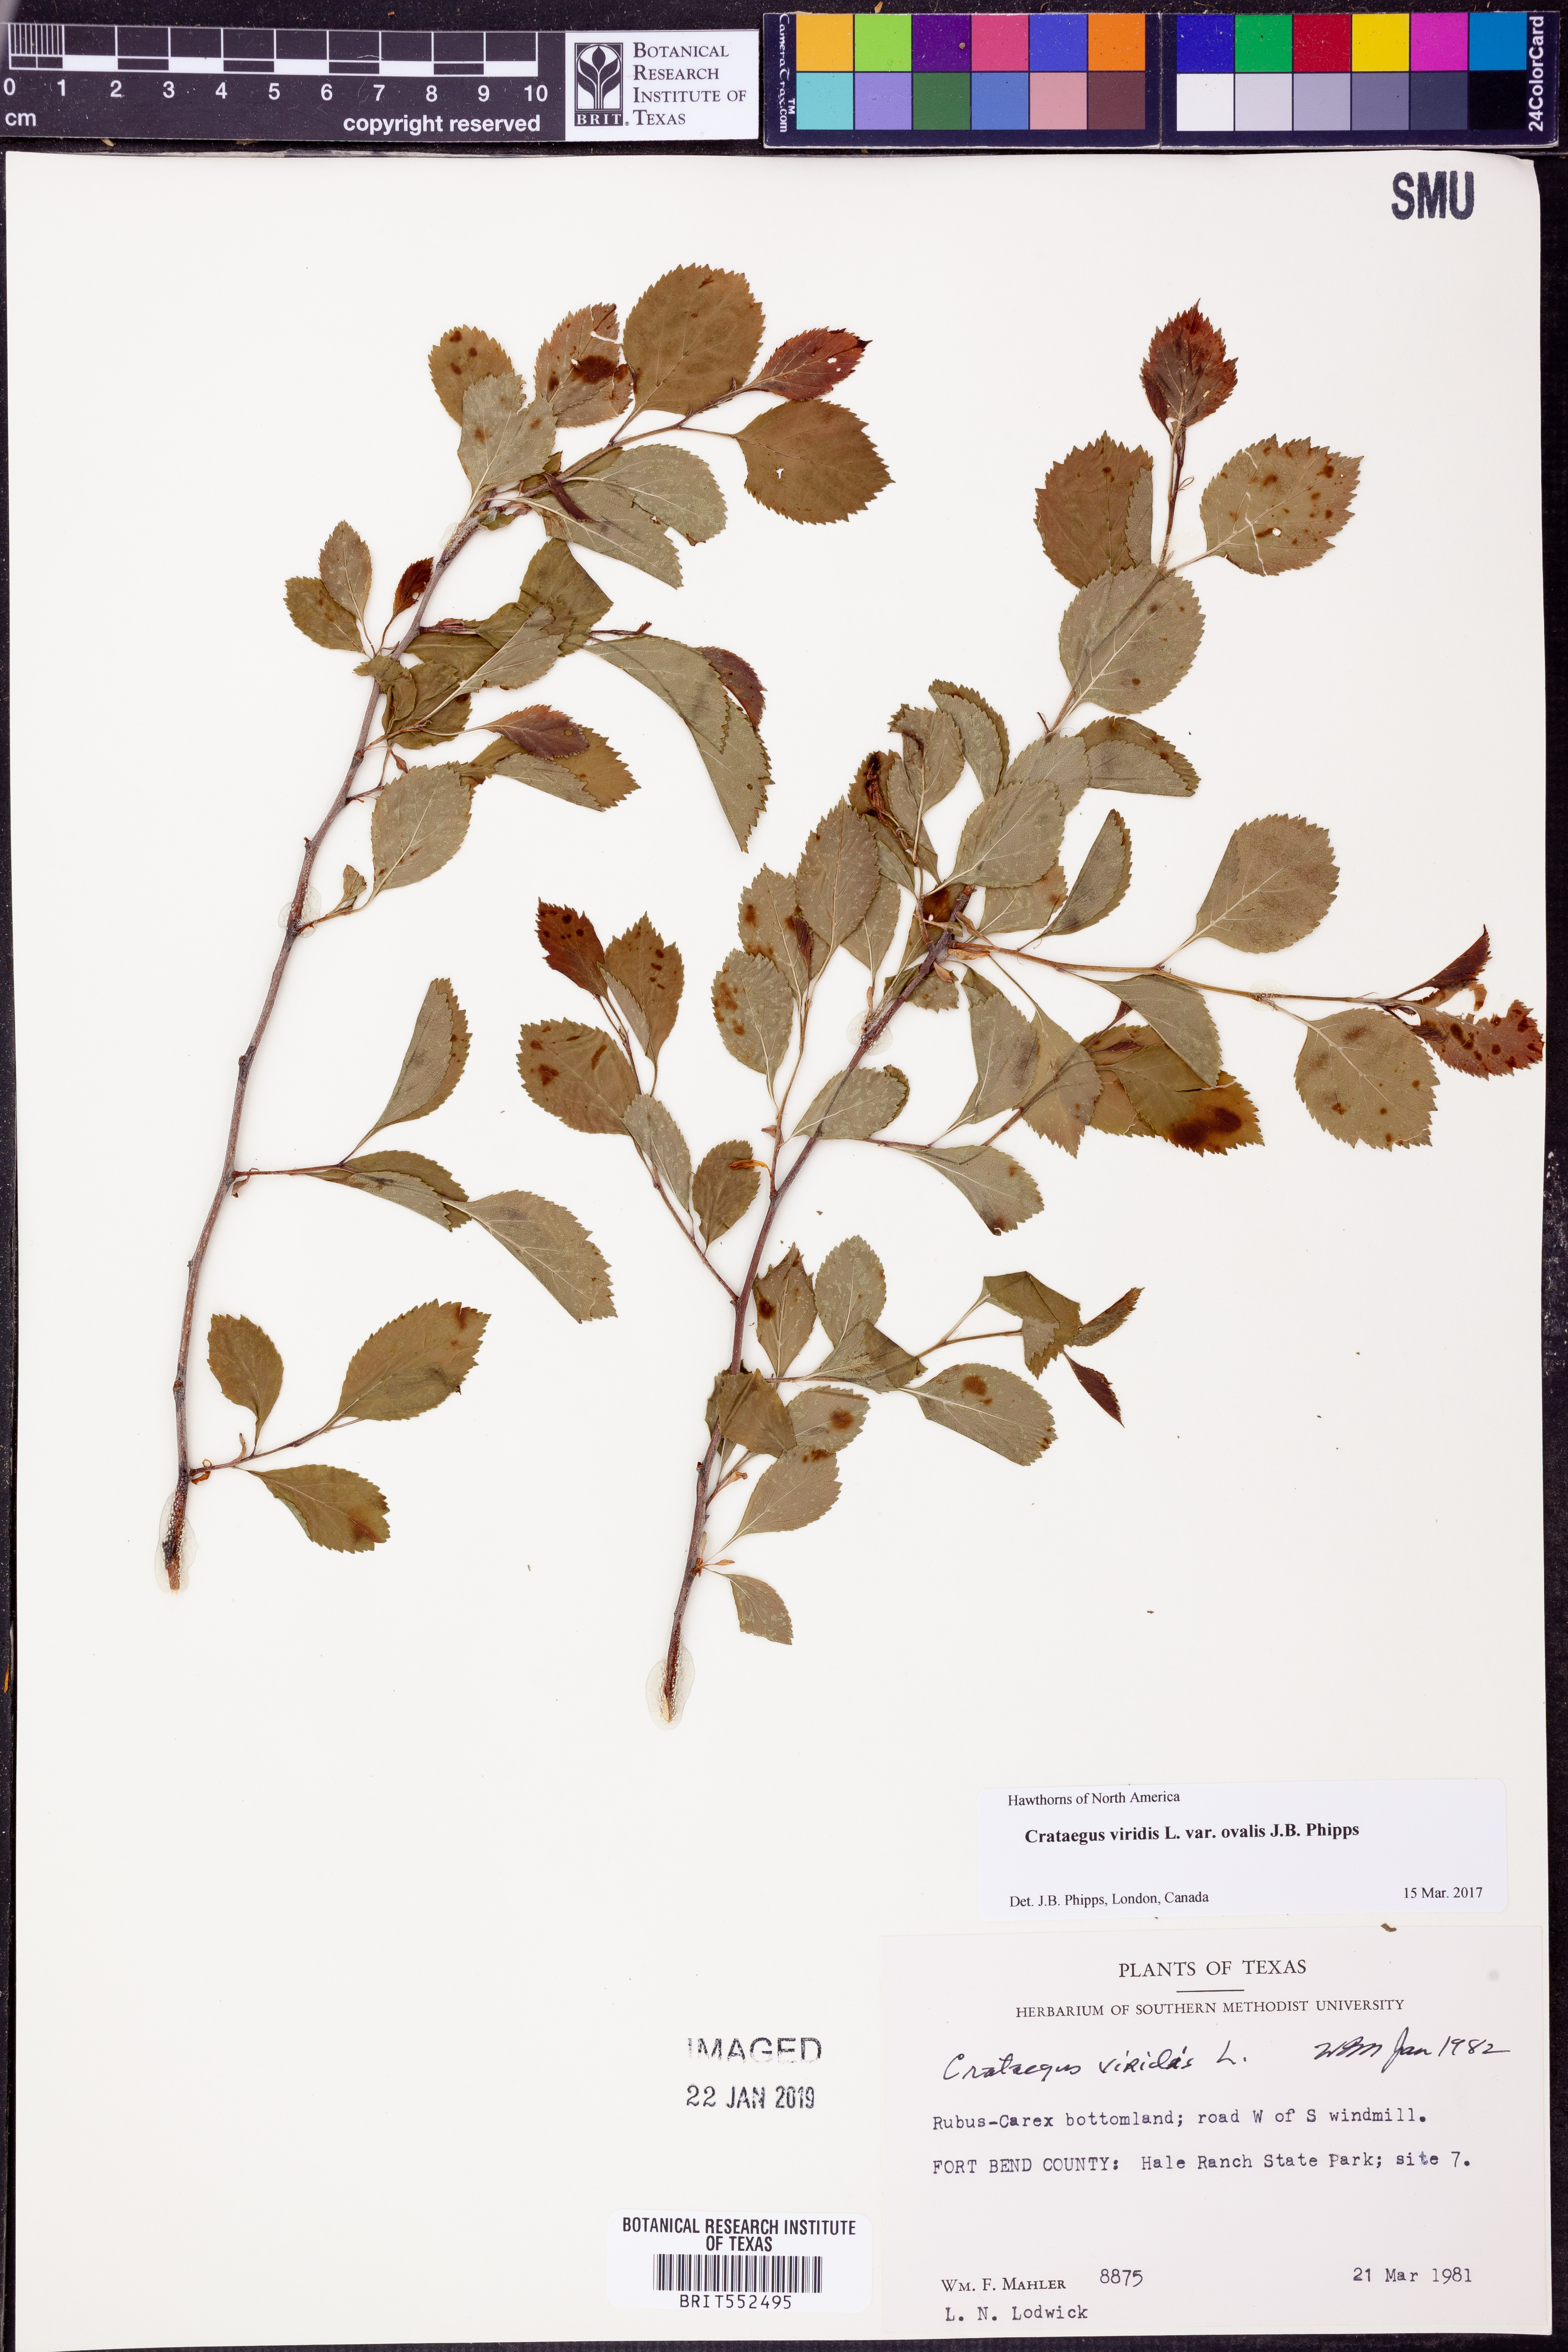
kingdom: Plantae
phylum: Tracheophyta
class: Magnoliopsida
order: Rosales
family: Rosaceae
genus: Crataegus
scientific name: Crataegus viridis
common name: Southernthorn
